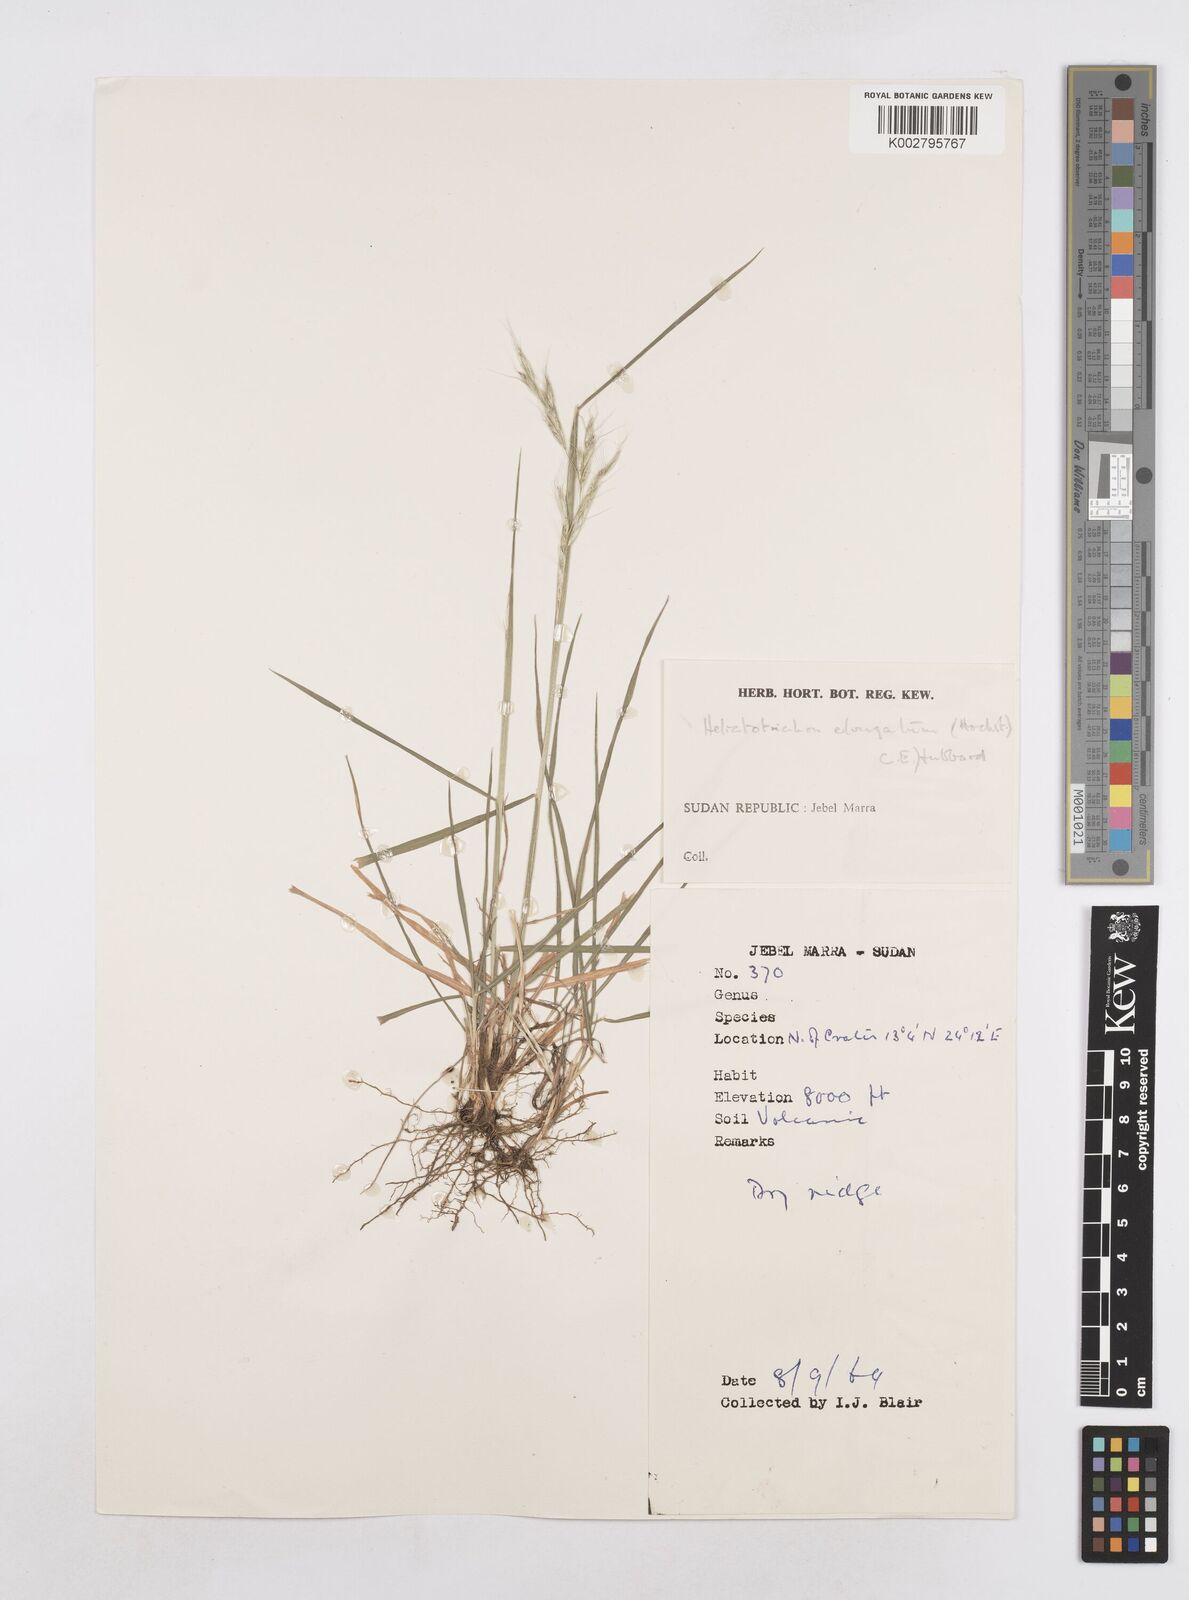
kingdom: Plantae
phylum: Tracheophyta
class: Liliopsida
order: Poales
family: Poaceae
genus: Trisetopsis
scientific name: Trisetopsis elongata
